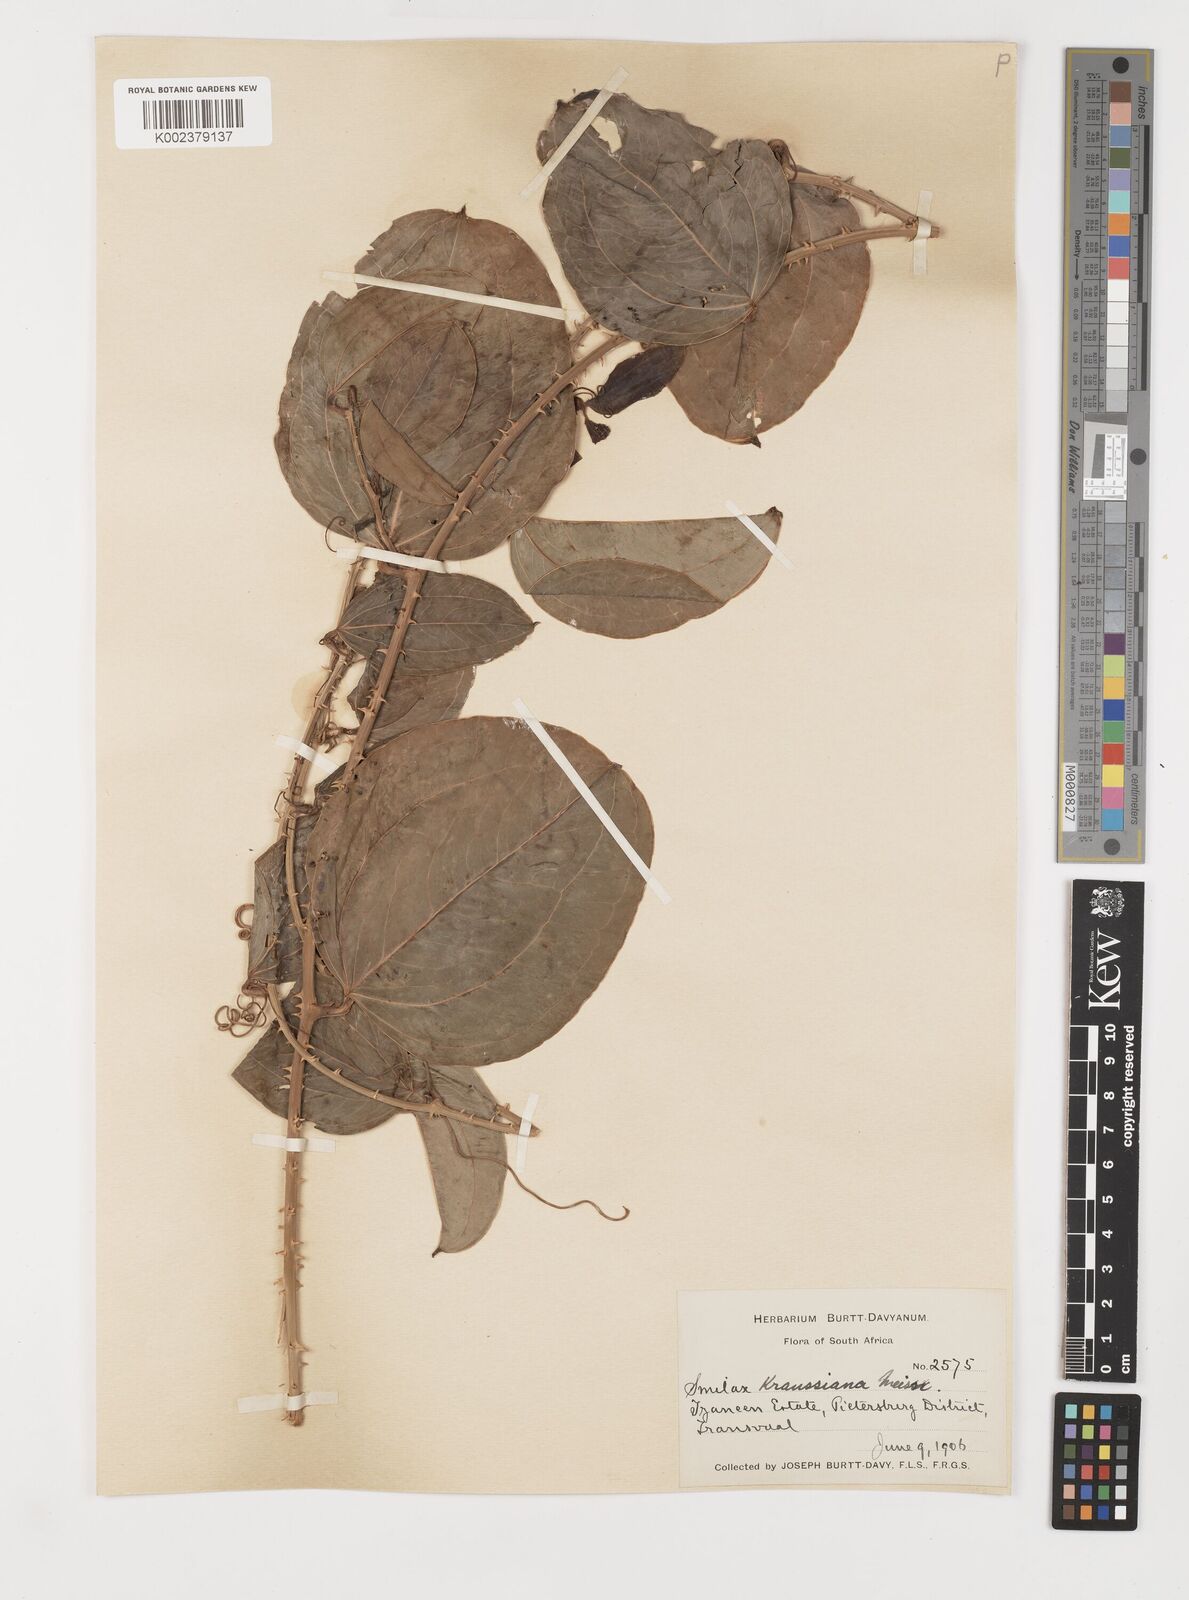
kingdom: Plantae
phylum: Tracheophyta
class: Liliopsida
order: Liliales
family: Smilacaceae
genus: Smilax
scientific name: Smilax anceps
